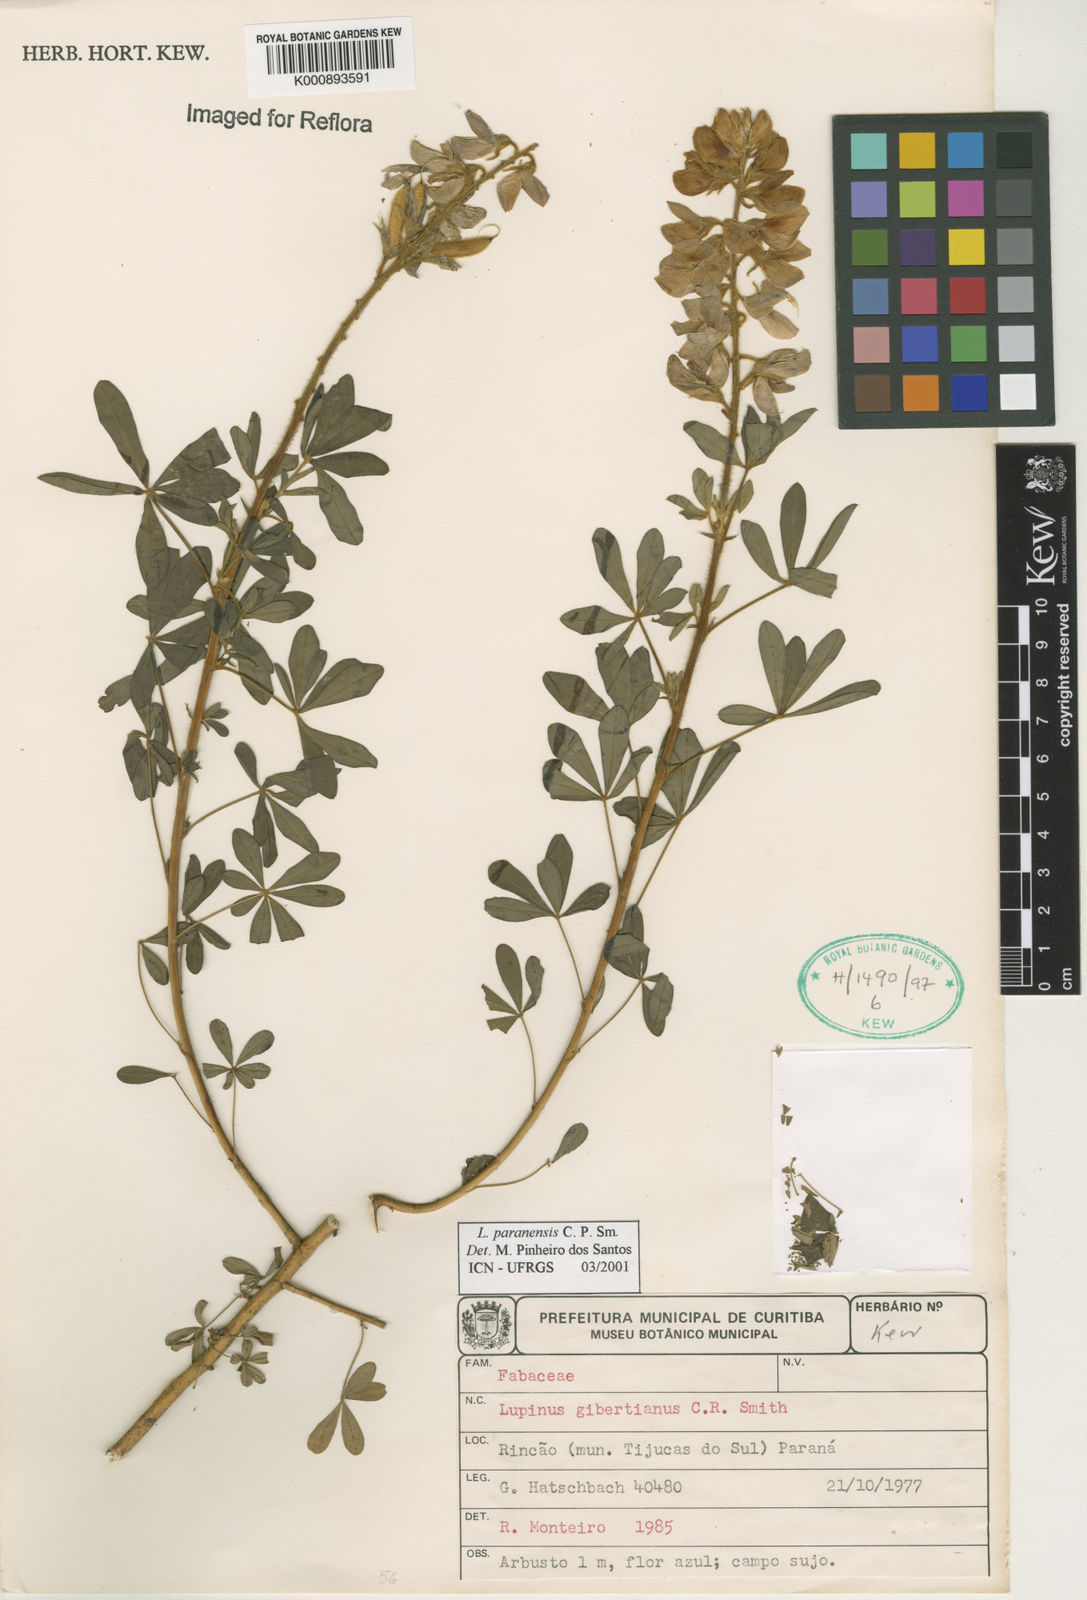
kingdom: Plantae
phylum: Tracheophyta
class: Magnoliopsida
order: Fabales
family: Fabaceae
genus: Lupinus
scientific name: Lupinus paranensis
